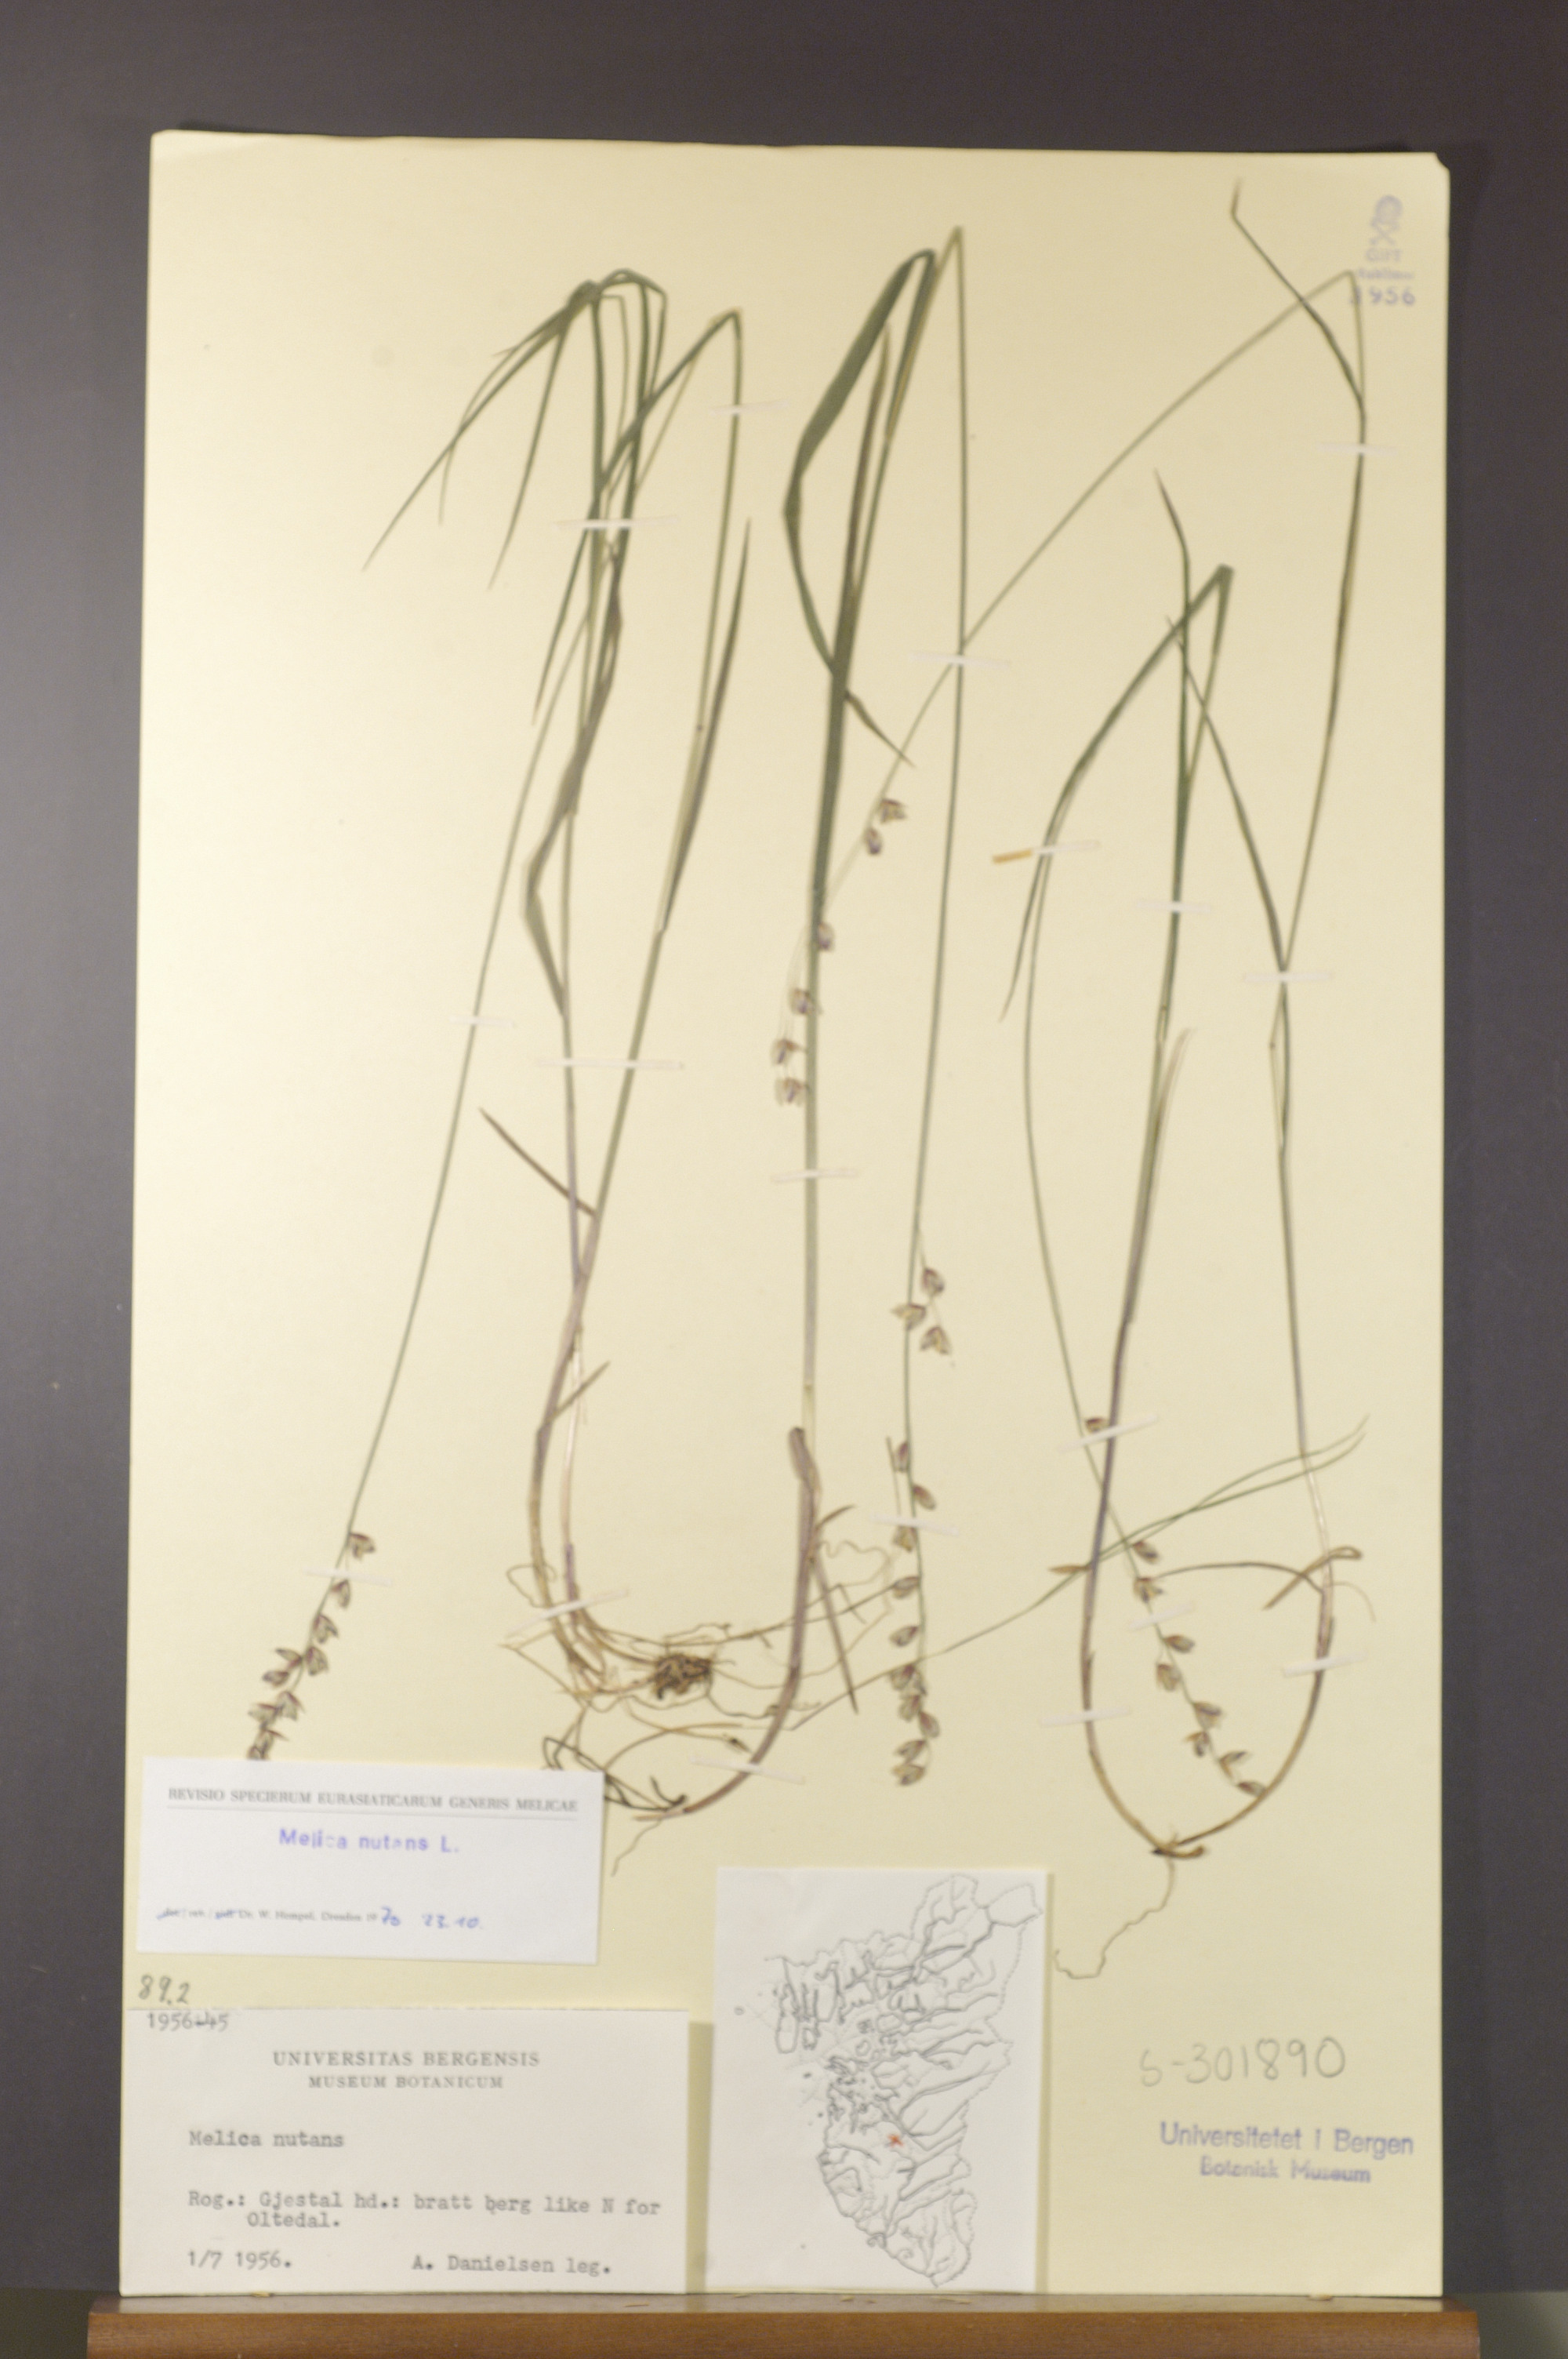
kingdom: Plantae
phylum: Tracheophyta
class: Liliopsida
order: Poales
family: Poaceae
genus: Melica
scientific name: Melica nutans
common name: Mountain melick
